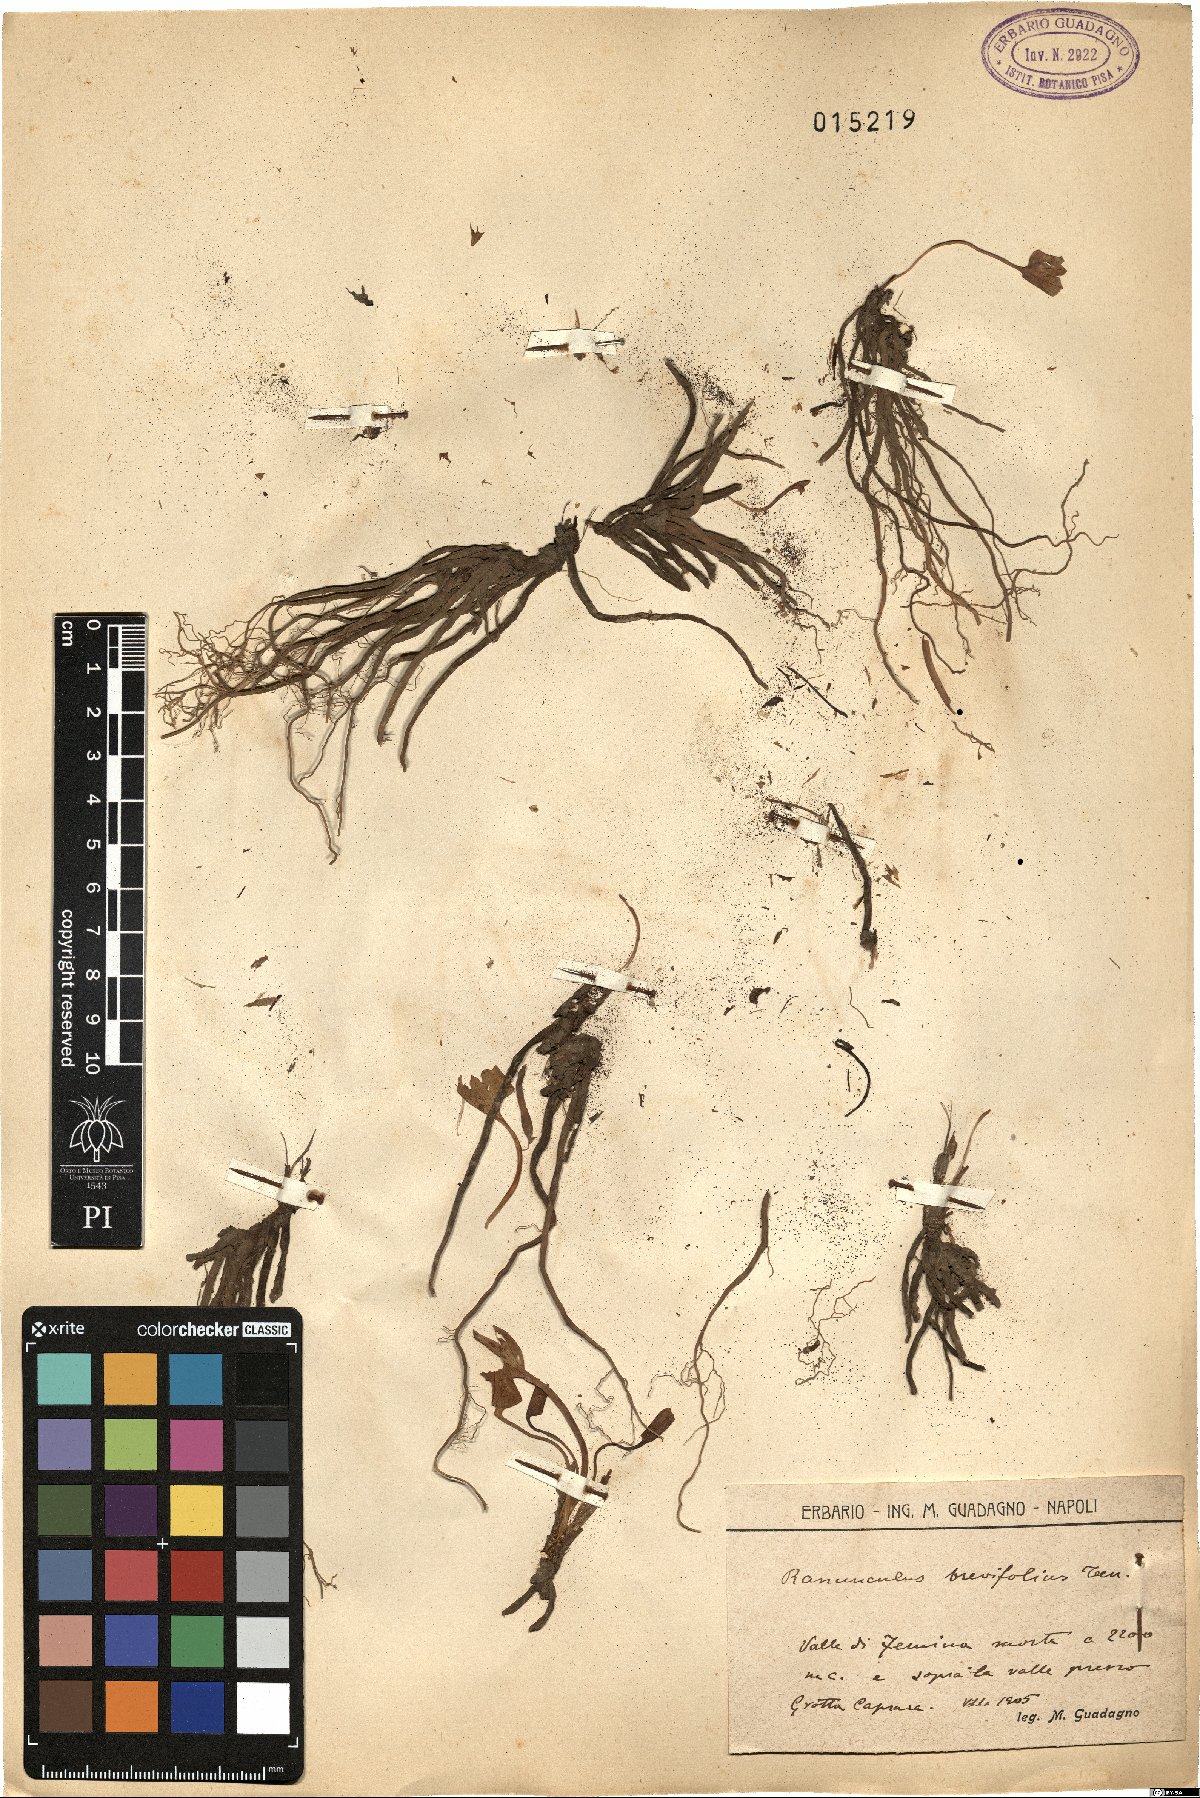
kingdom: Plantae
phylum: Tracheophyta
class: Magnoliopsida
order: Ranunculales
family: Ranunculaceae
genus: Ranunculus
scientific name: Ranunculus brevifolius
